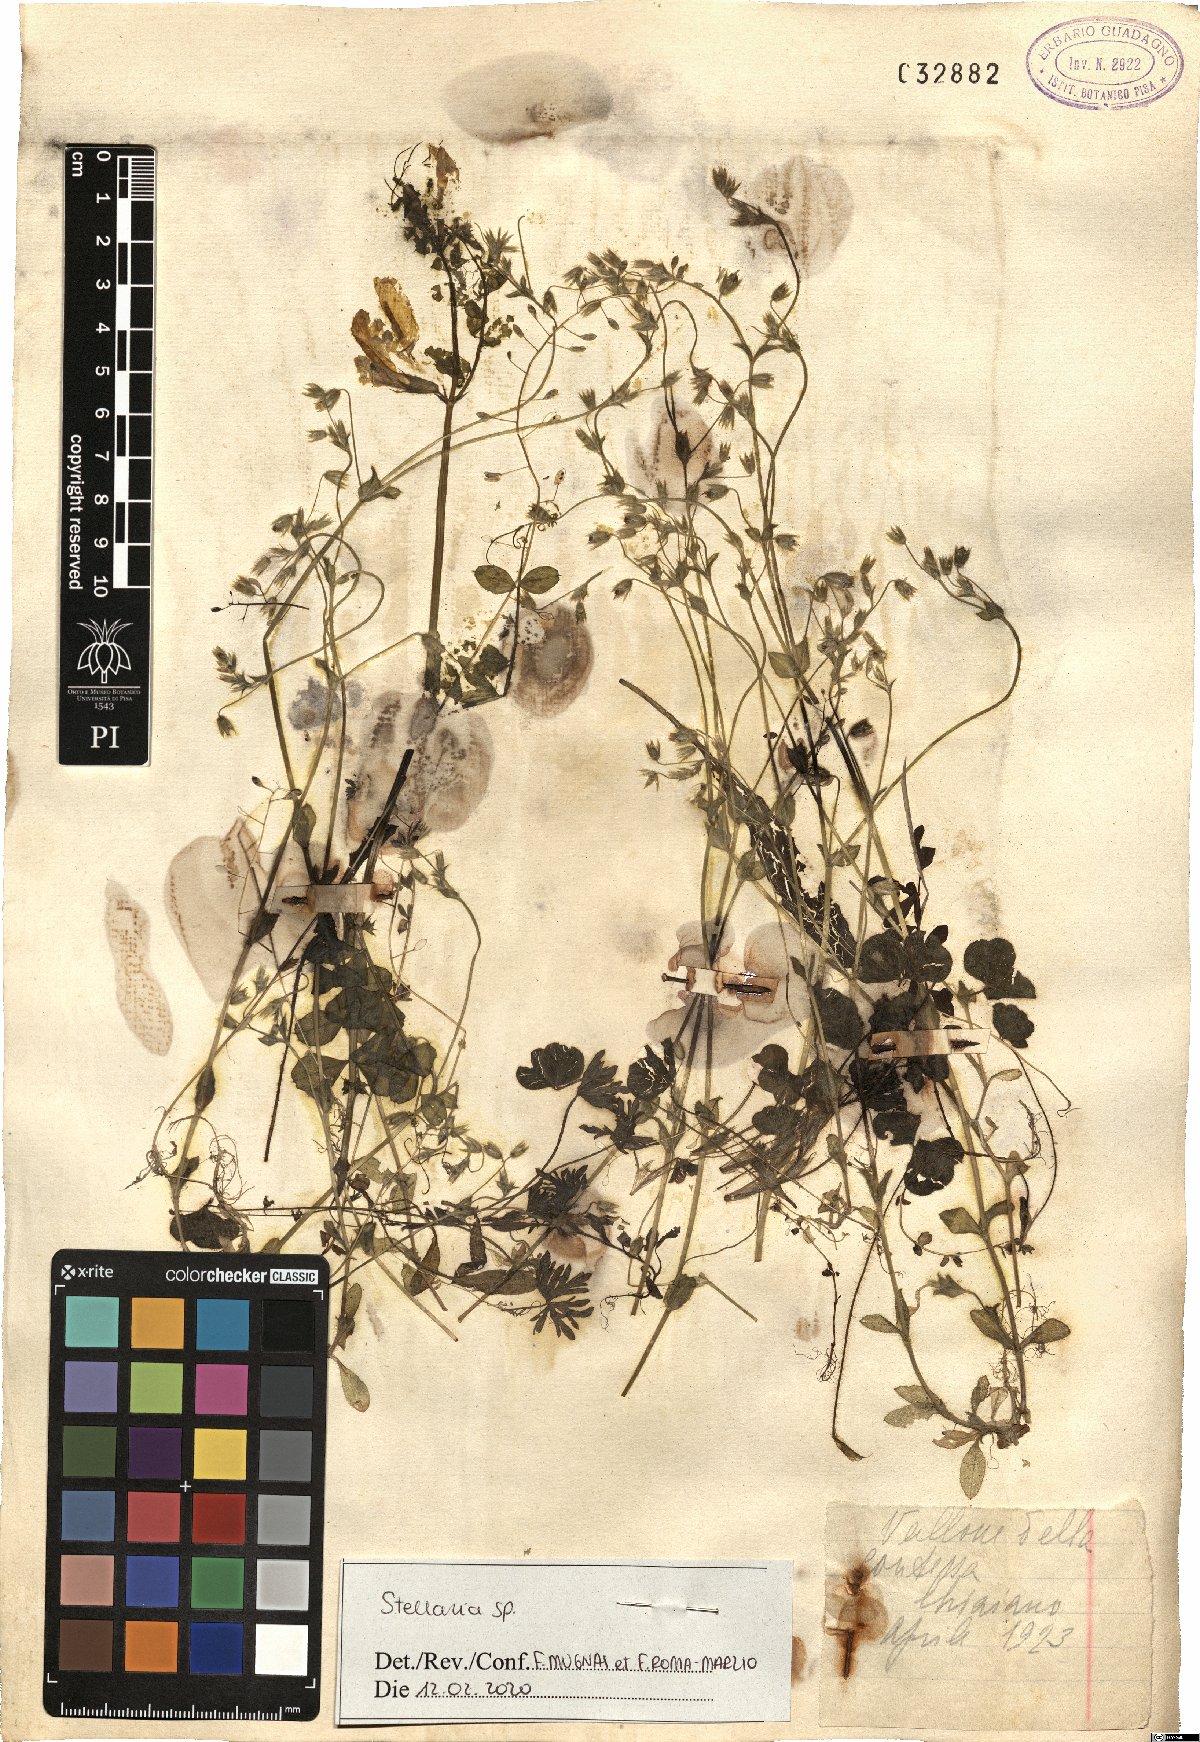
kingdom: Plantae
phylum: Tracheophyta
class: Magnoliopsida
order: Caryophyllales
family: Caryophyllaceae
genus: Stellaria
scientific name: Stellaria
